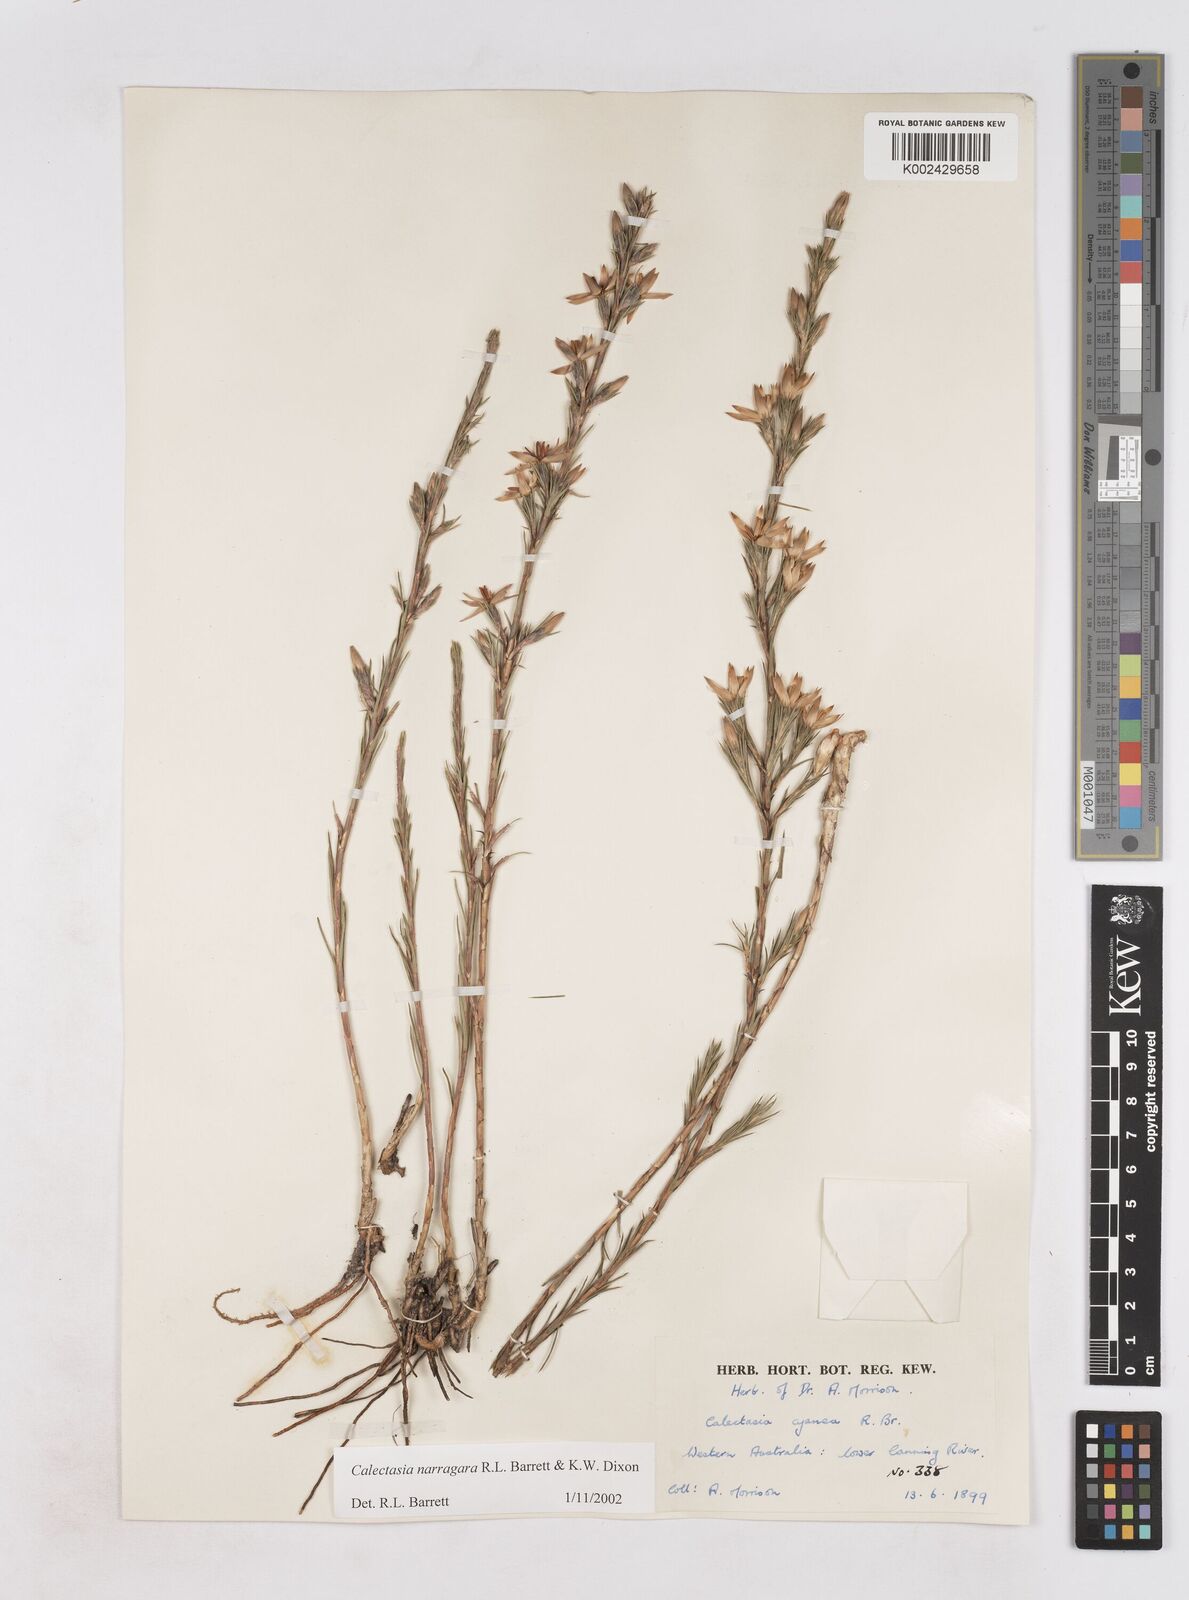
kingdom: Plantae
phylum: Tracheophyta
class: Liliopsida
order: Arecales
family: Dasypogonaceae
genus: Calectasia
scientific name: Calectasia narragara
